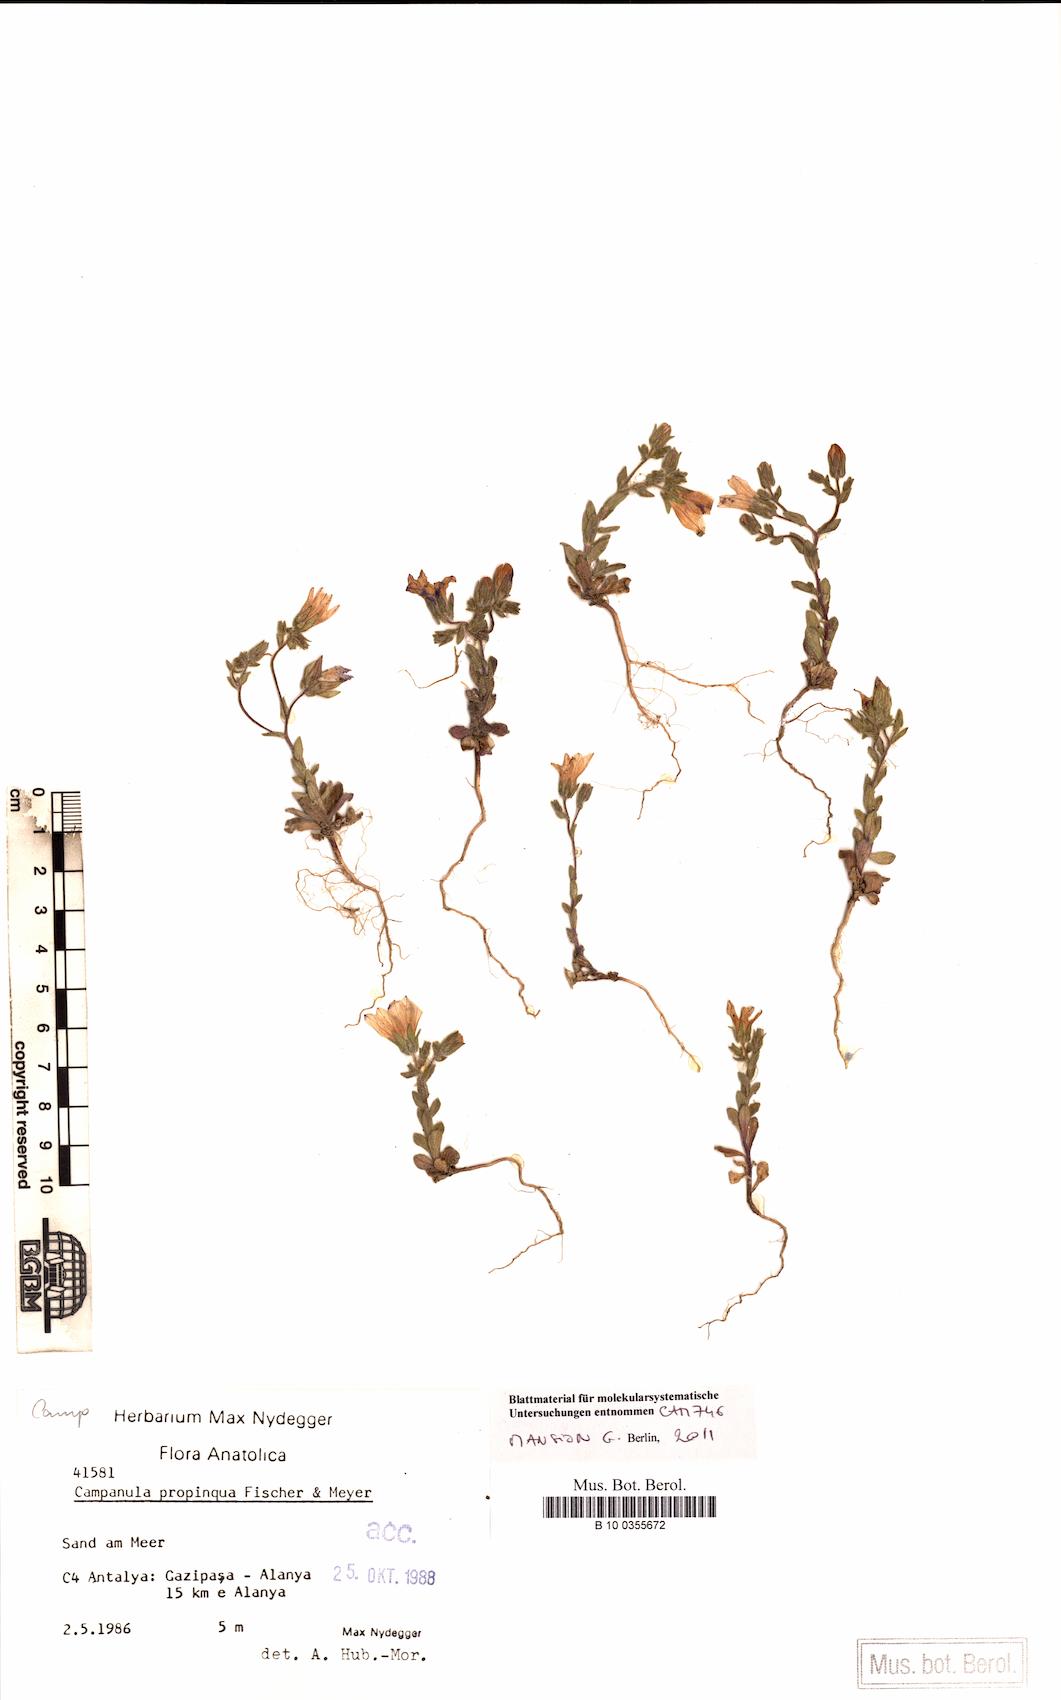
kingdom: Plantae
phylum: Tracheophyta
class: Magnoliopsida
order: Asterales
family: Campanulaceae
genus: Campanula
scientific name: Campanula propinqua
